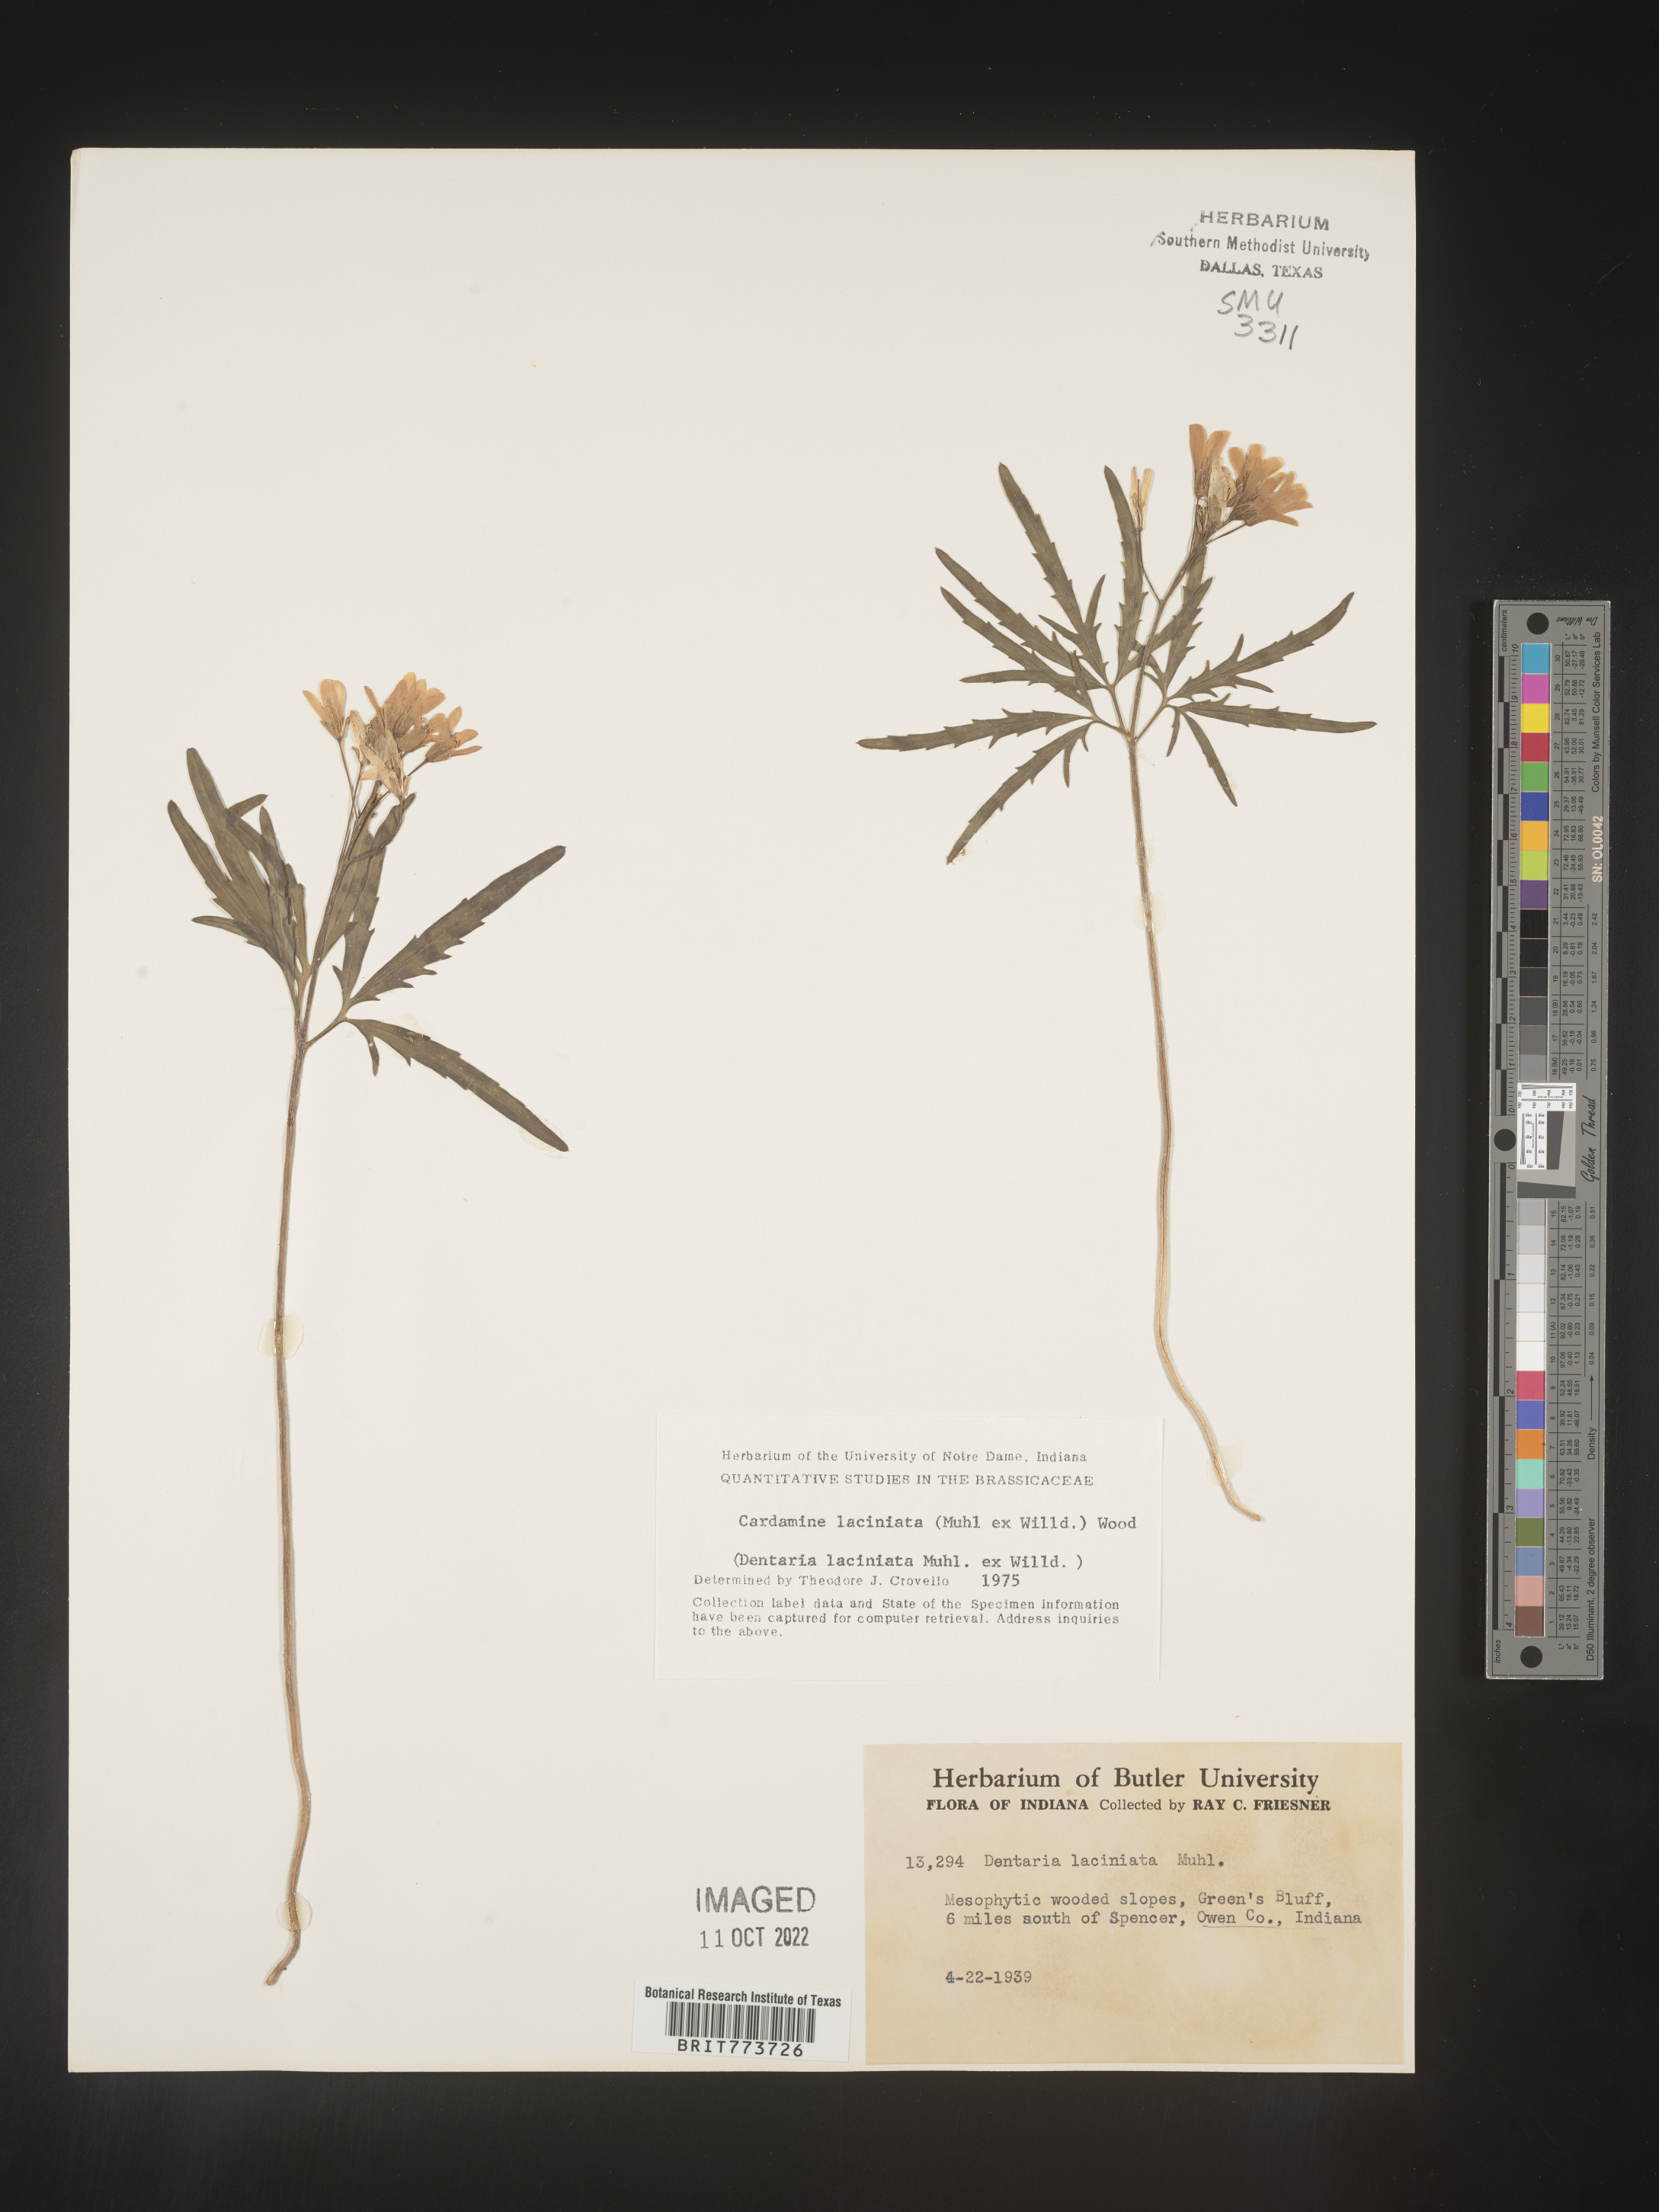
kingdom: Plantae
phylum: Tracheophyta
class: Magnoliopsida
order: Brassicales
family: Brassicaceae
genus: Rorippa
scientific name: Rorippa laciniata
